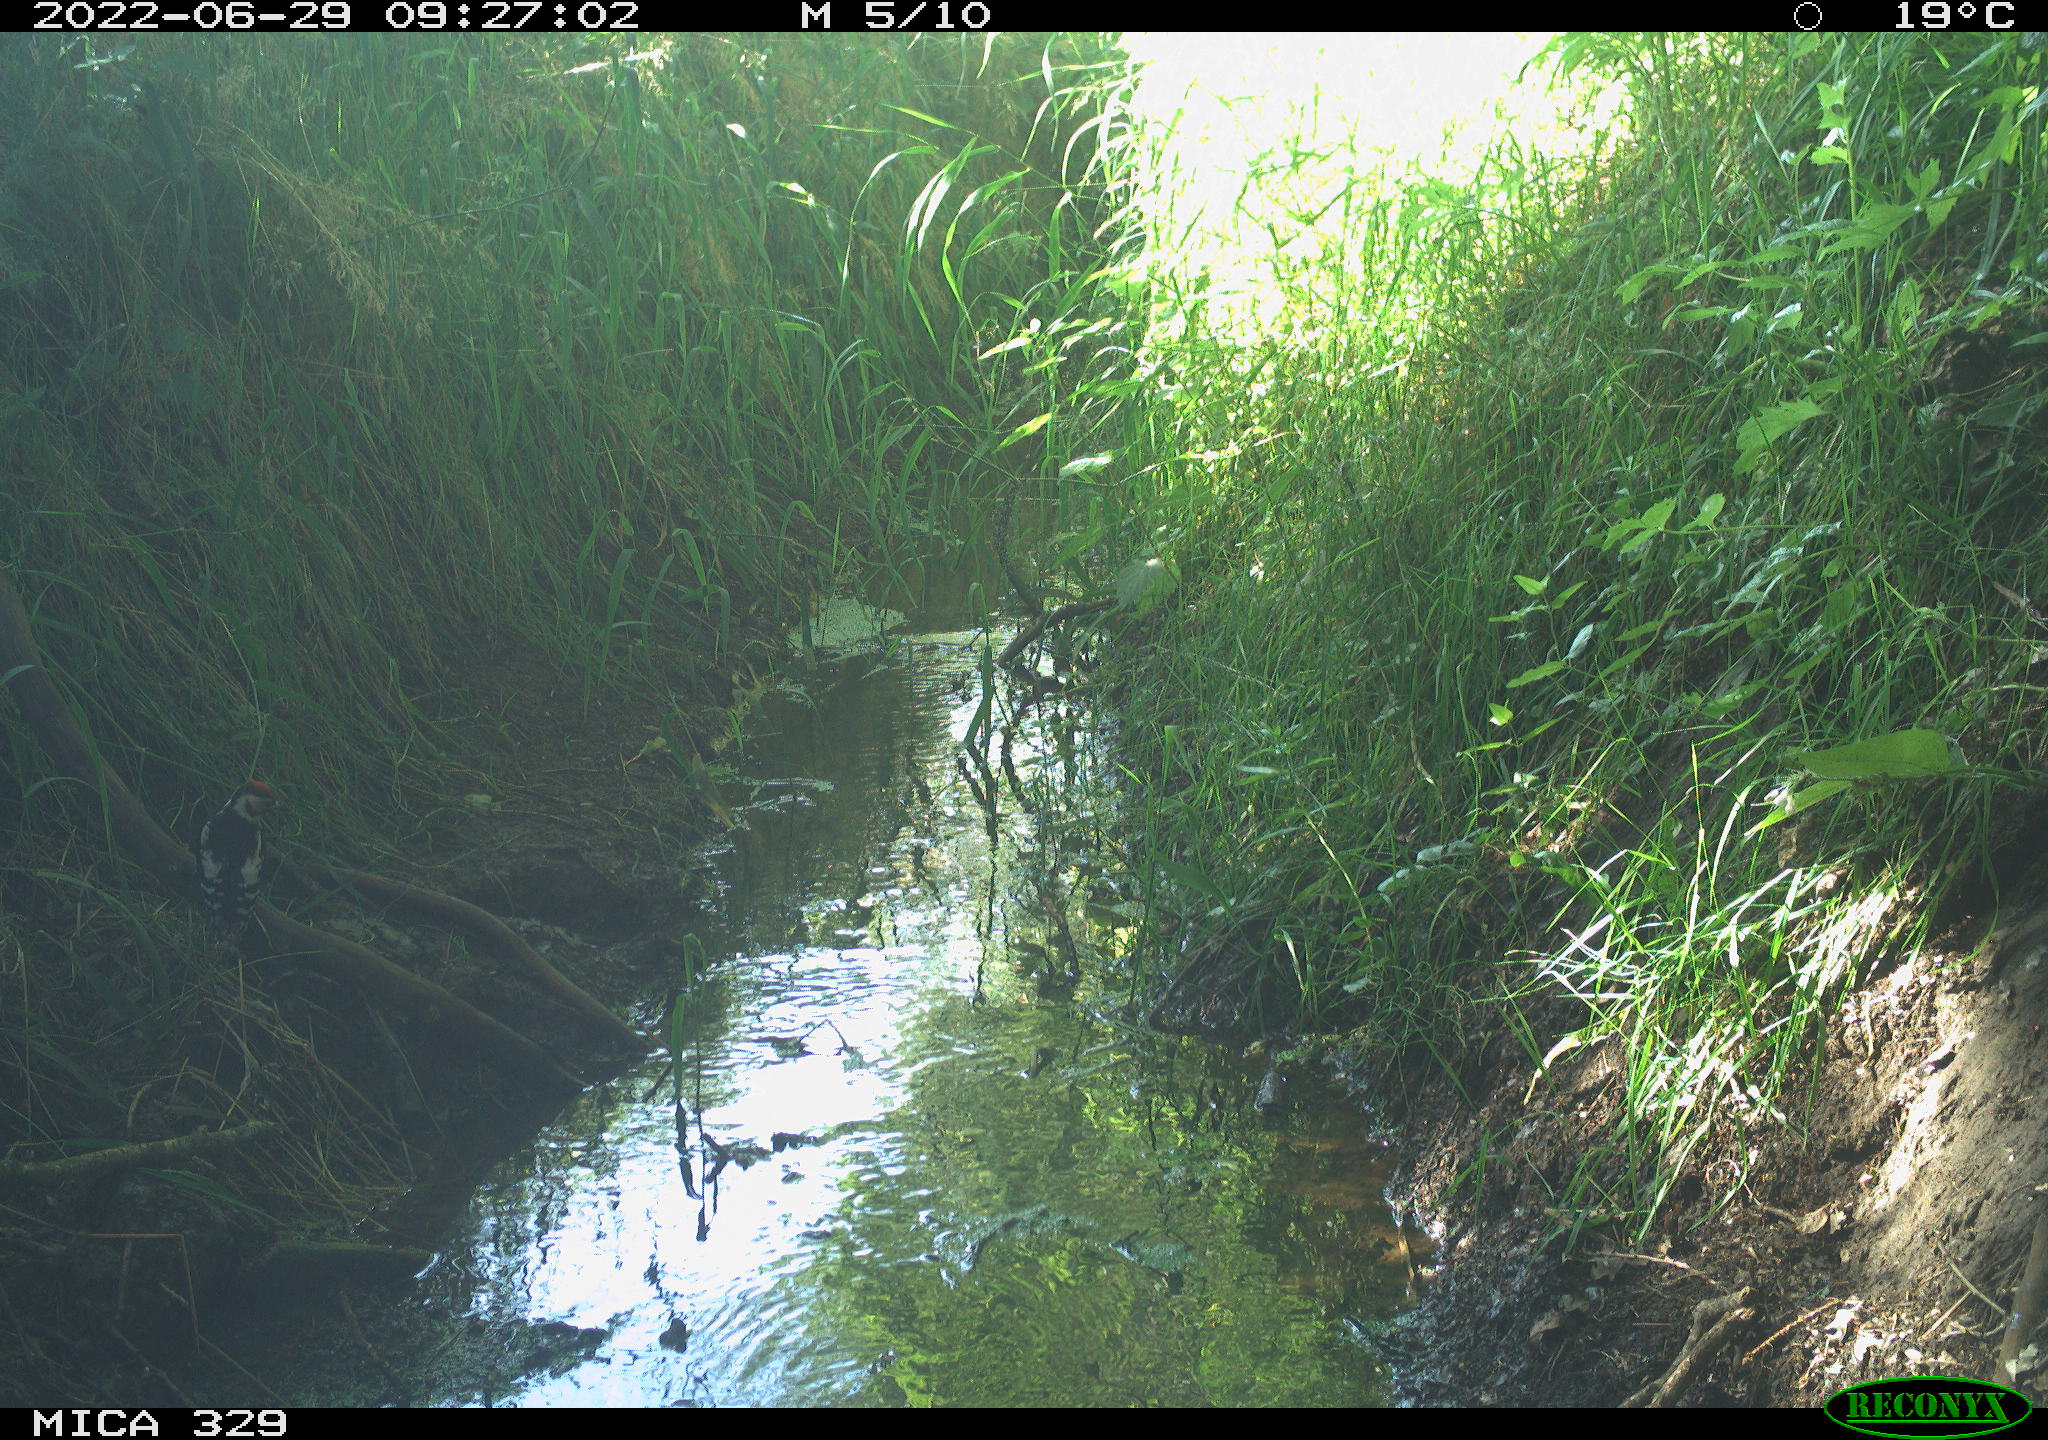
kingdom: Animalia
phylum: Chordata
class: Aves
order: Piciformes
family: Picidae
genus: Dendrocopos
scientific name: Dendrocopos major
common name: Great spotted woodpecker
